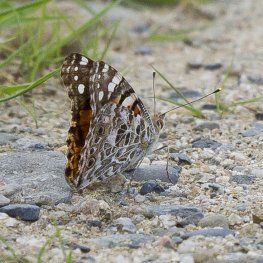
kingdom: Animalia
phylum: Arthropoda
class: Insecta
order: Lepidoptera
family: Nymphalidae
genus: Vanessa
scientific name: Vanessa cardui
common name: Painted Lady
